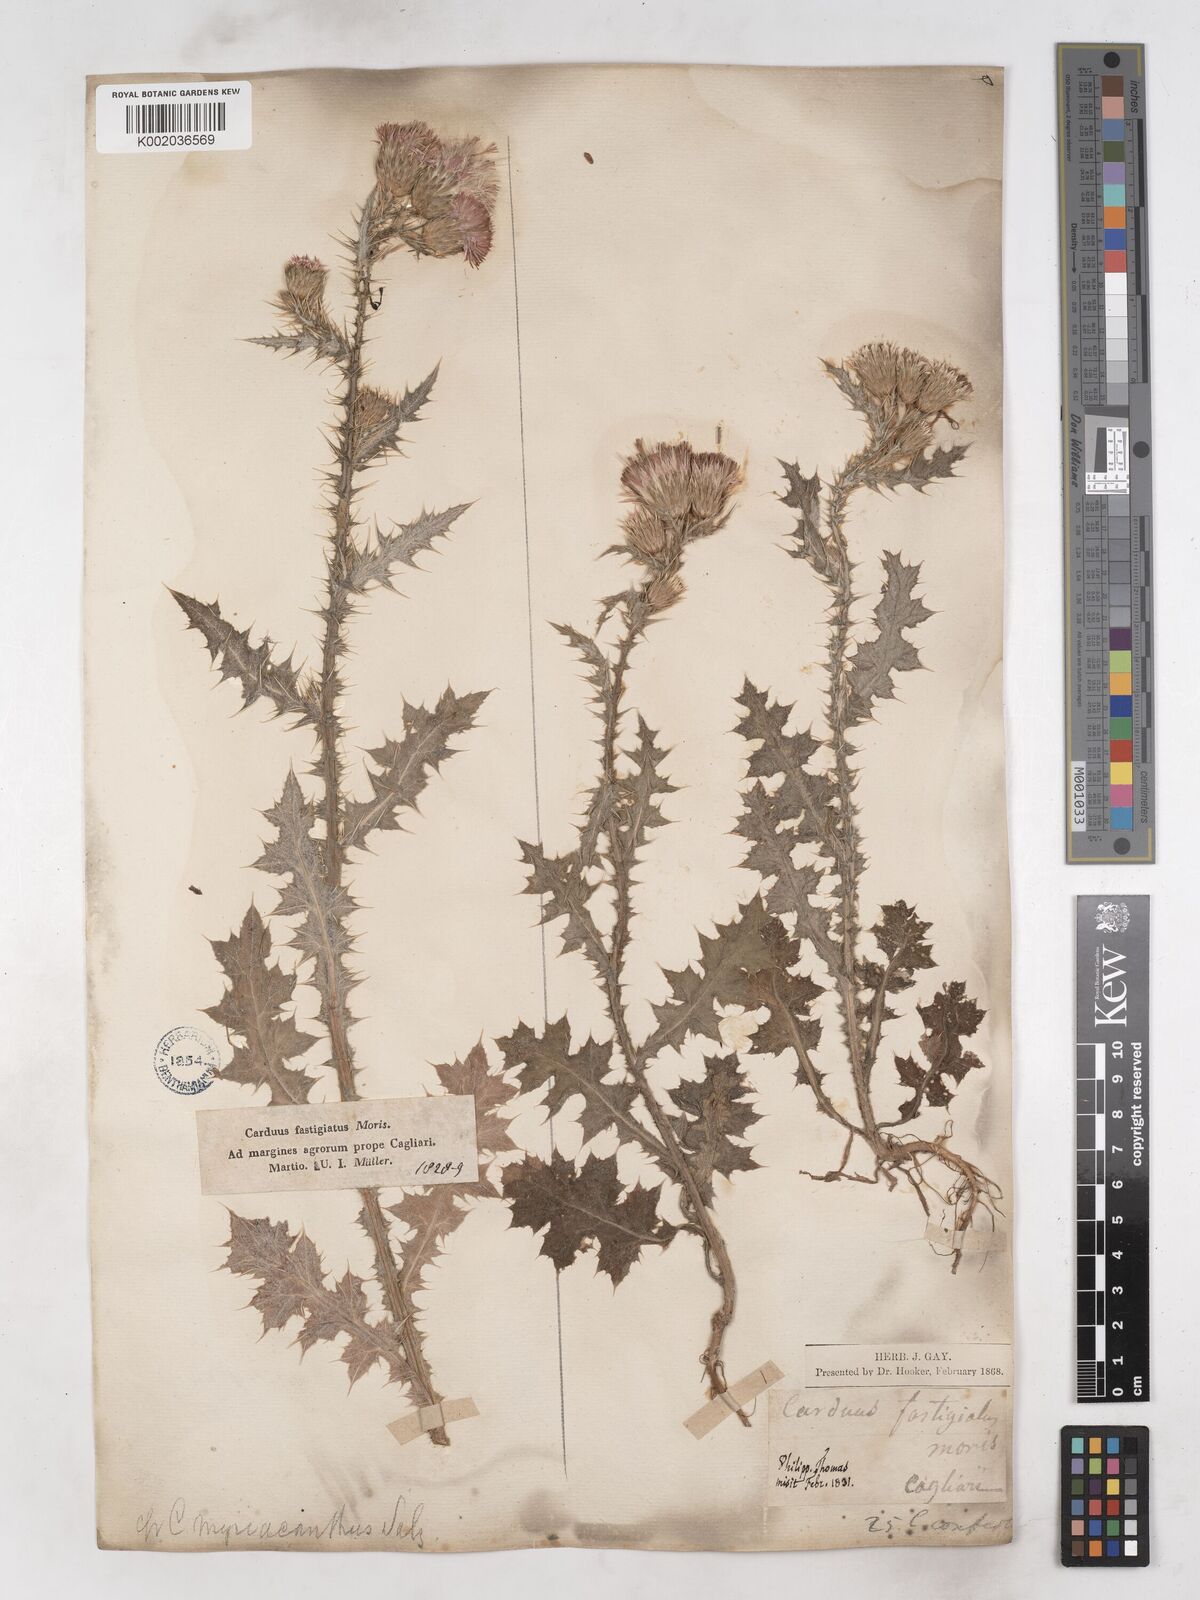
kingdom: Plantae
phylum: Tracheophyta
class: Magnoliopsida
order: Asterales
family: Asteraceae
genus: Carduus
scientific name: Carduus argyroa
